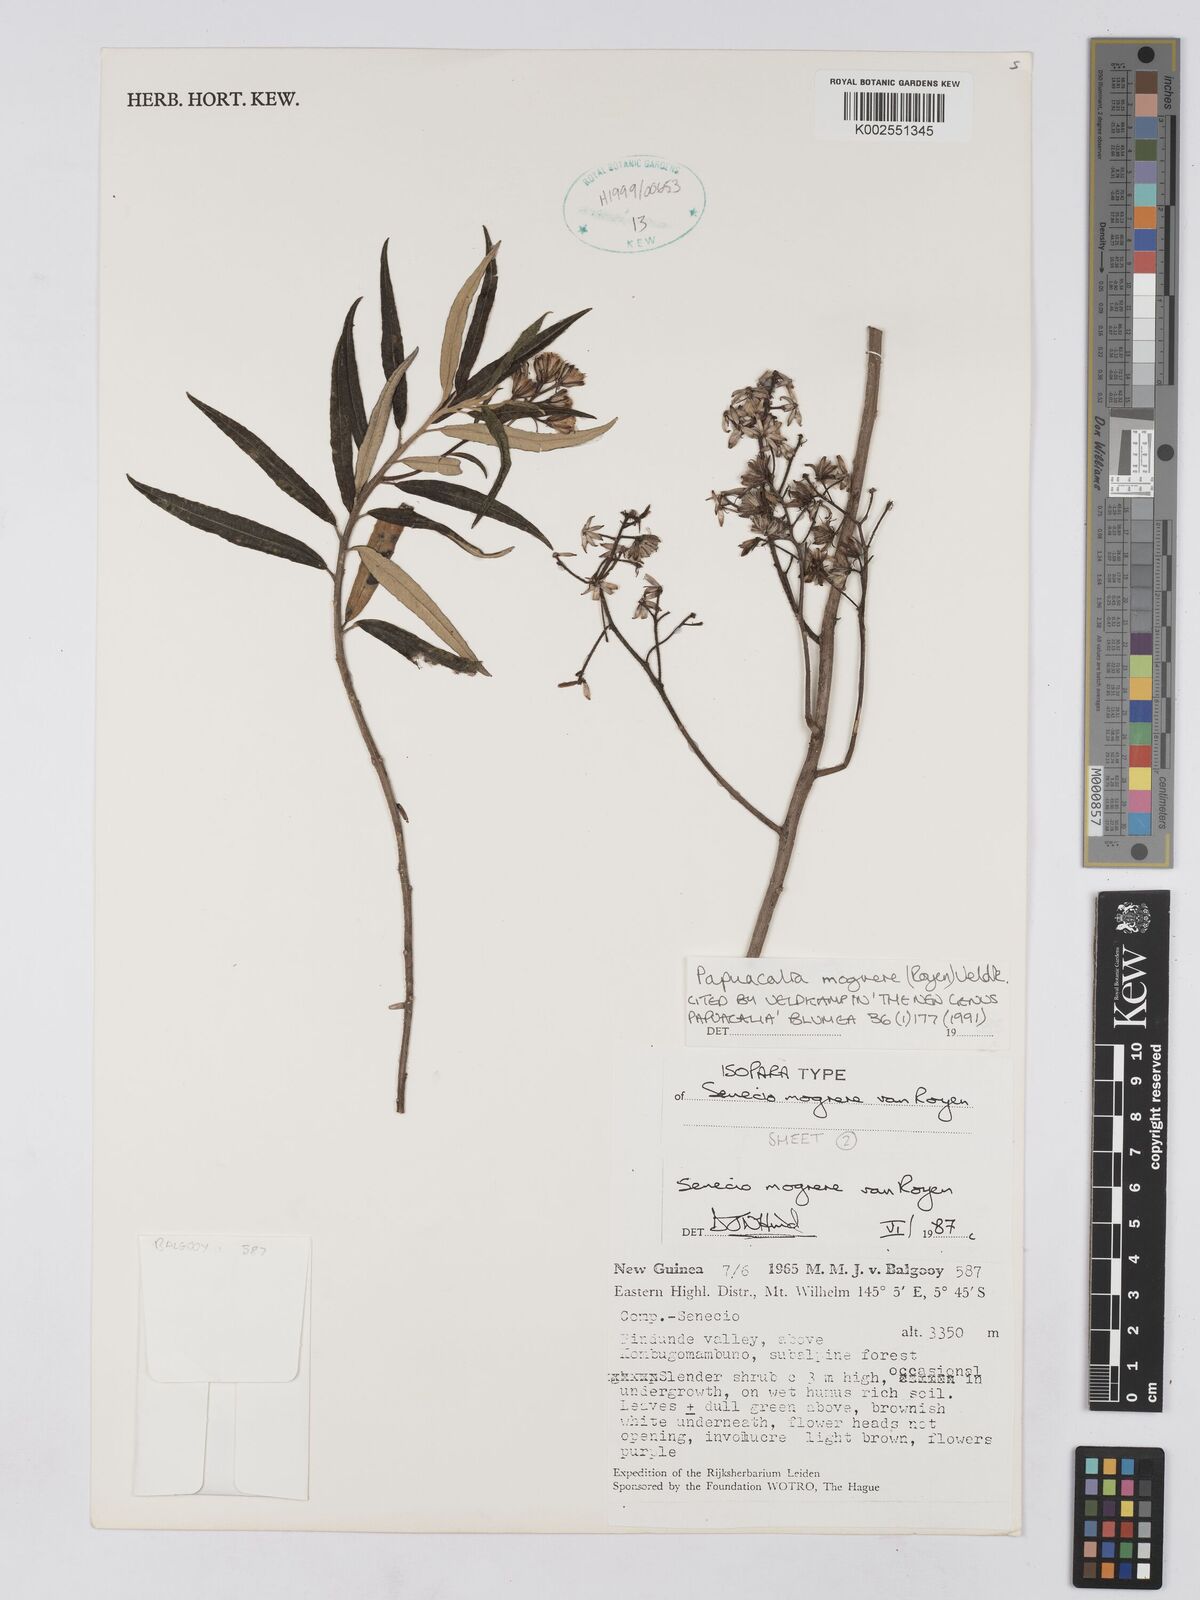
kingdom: Plantae
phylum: Tracheophyta
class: Magnoliopsida
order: Asterales
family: Asteraceae
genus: Papuacalia
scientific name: Papuacalia mogrere
